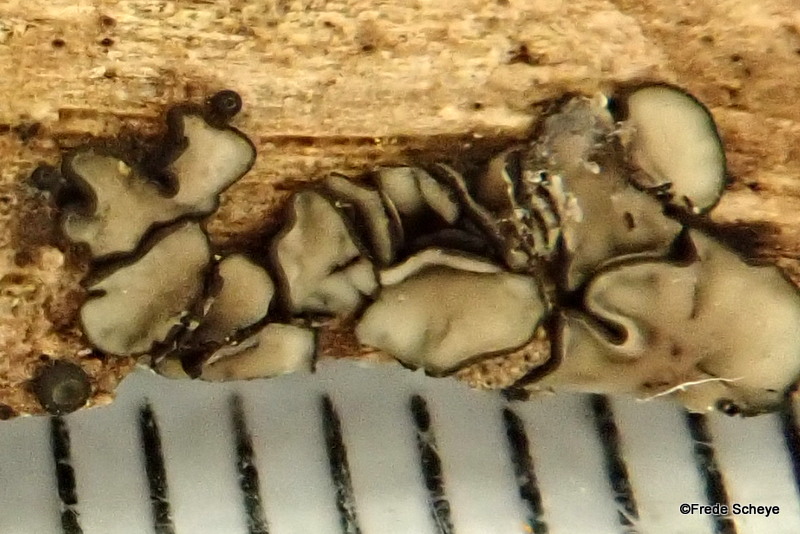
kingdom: Fungi
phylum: Ascomycota
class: Leotiomycetes
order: Helotiales
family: Mollisiaceae
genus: Mollisia
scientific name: Mollisia melaleuca
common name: sorthvid gråskive
